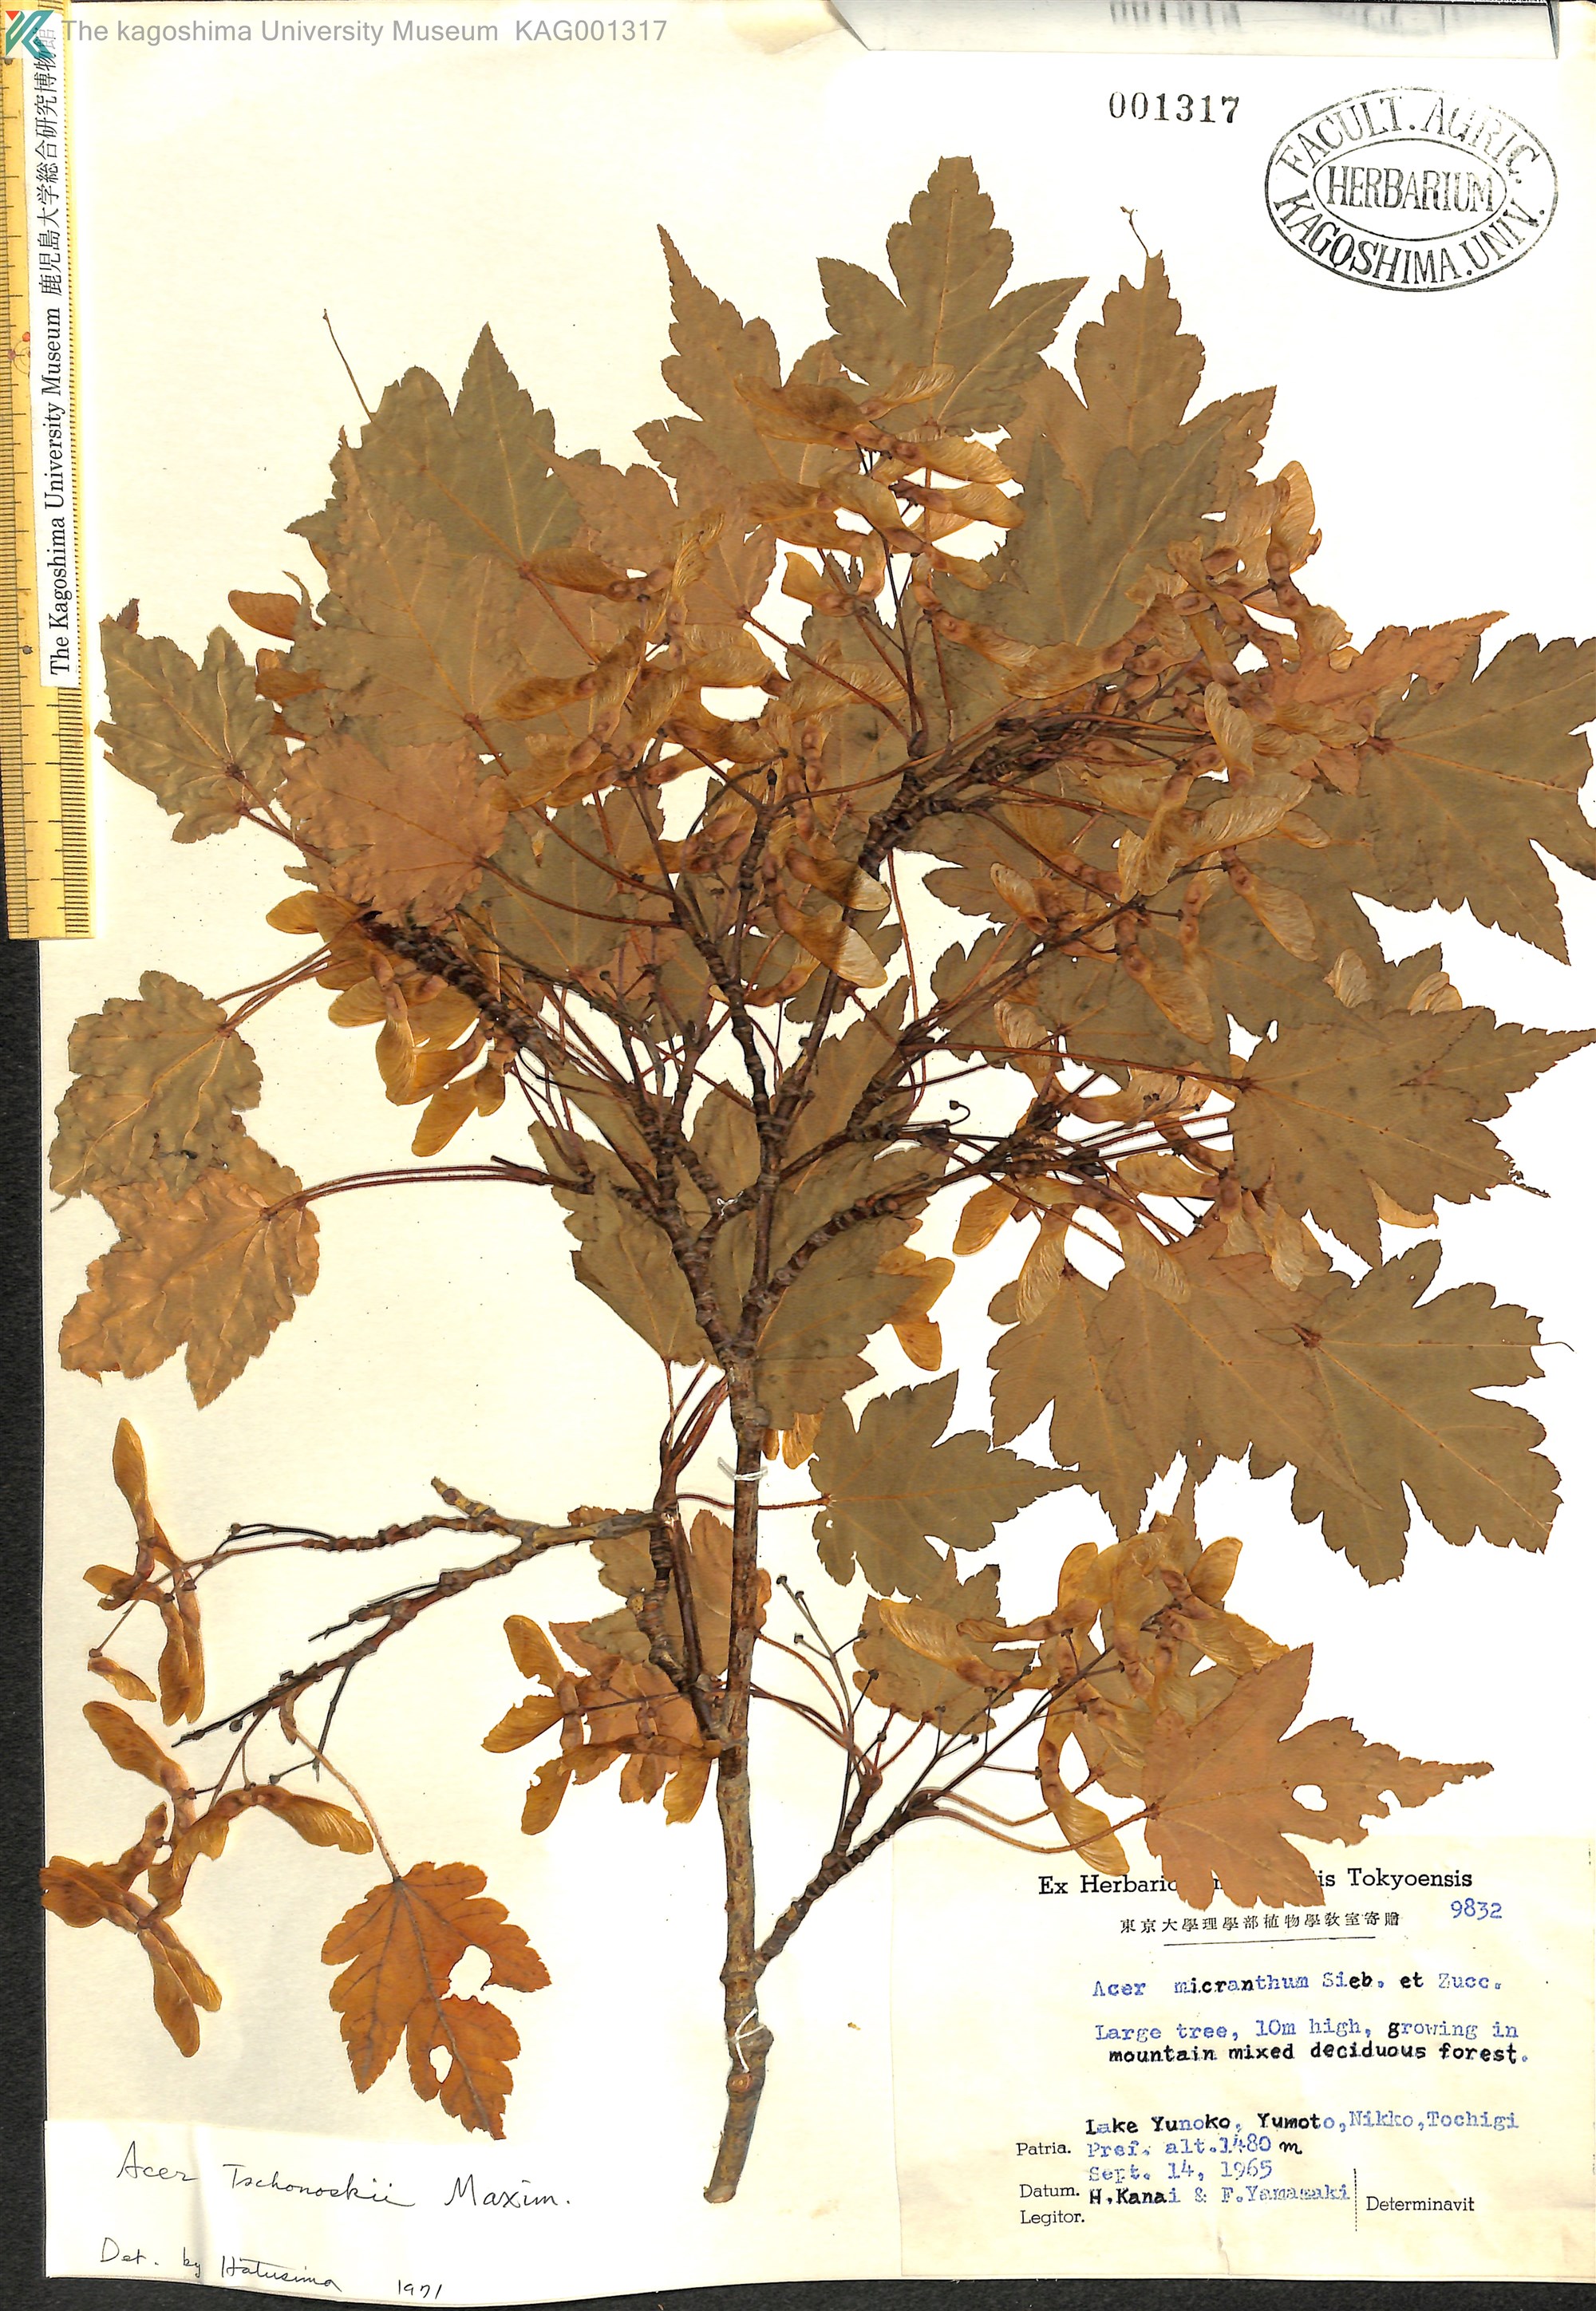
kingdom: Plantae
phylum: Tracheophyta
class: Magnoliopsida
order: Sapindales
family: Sapindaceae
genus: Acer
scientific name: Acer tschonoskii
